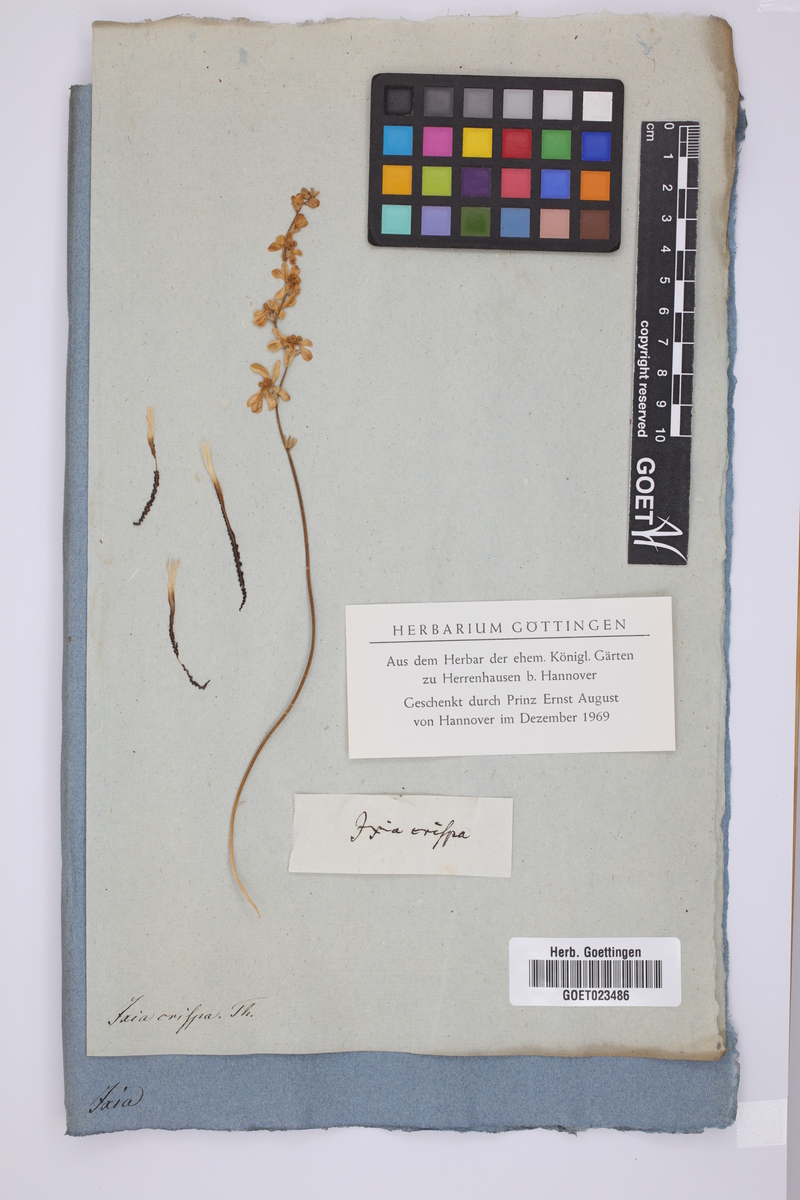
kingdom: Plantae
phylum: Tracheophyta
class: Liliopsida
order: Asparagales
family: Iridaceae
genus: Tritonia
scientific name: Tritonia undulata
